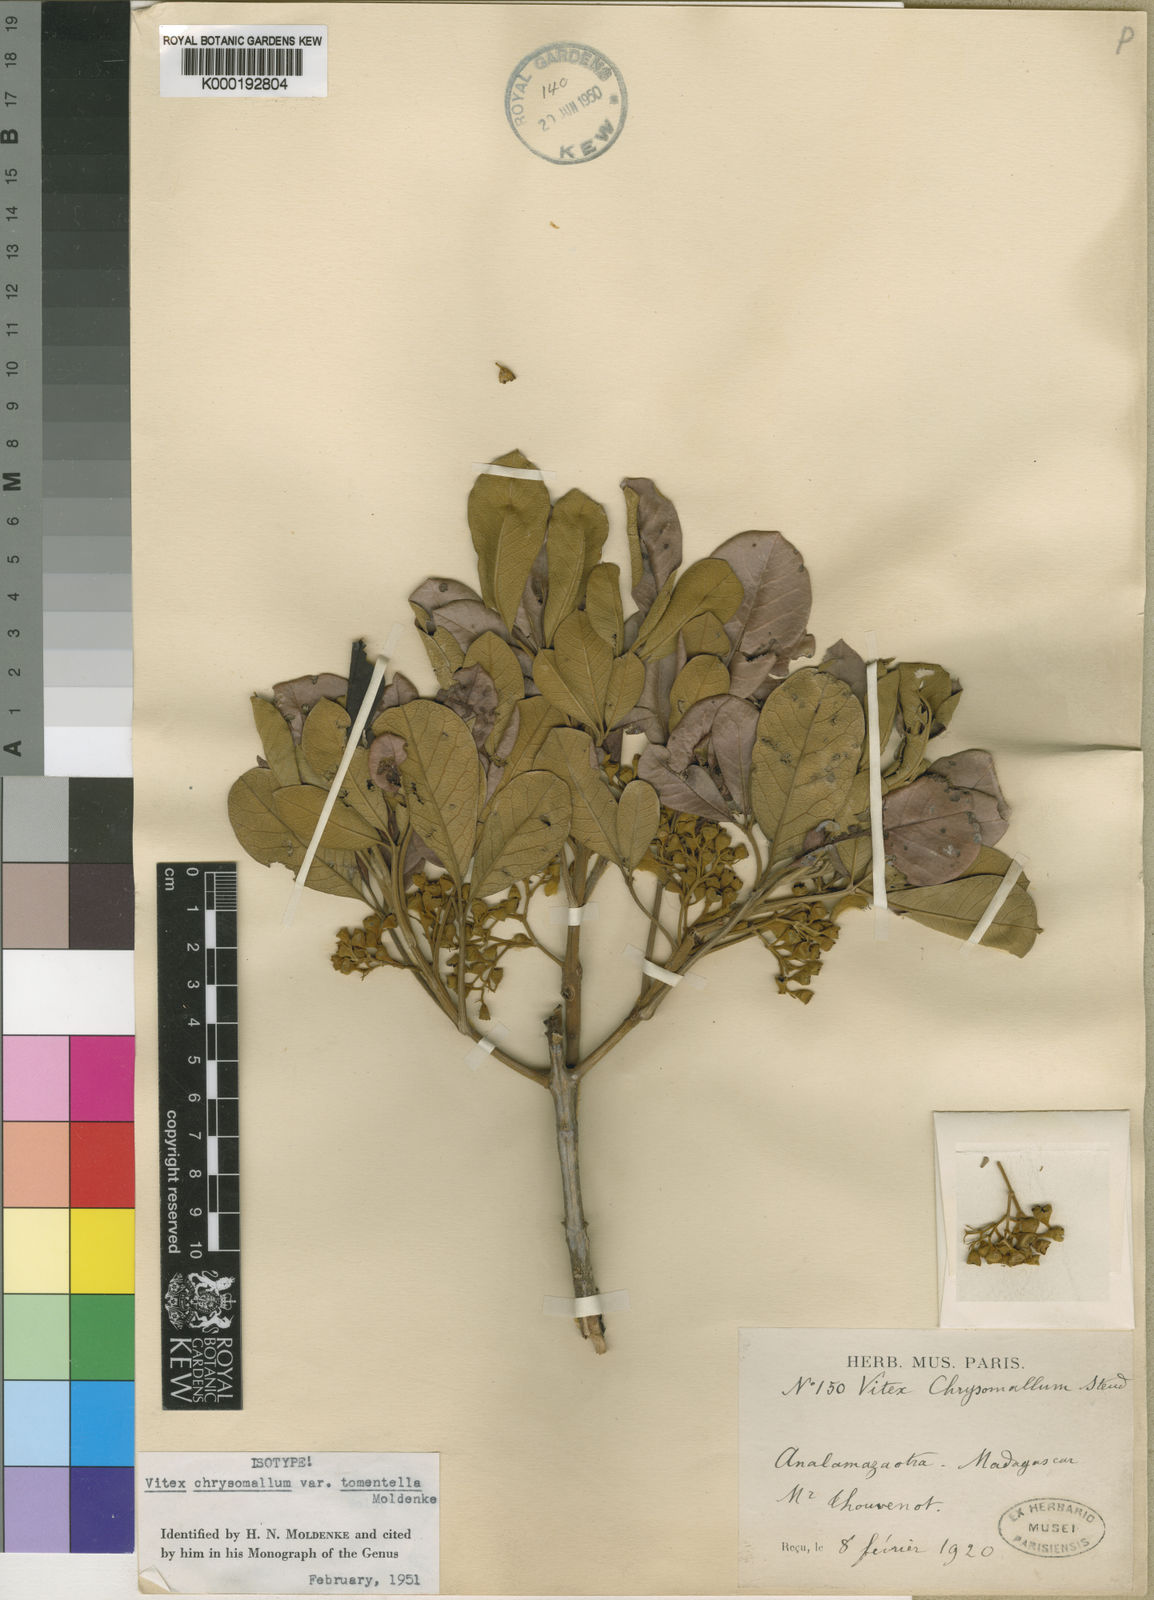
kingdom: Plantae
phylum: Tracheophyta
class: Magnoliopsida
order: Lamiales
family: Lamiaceae
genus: Vitex
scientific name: Vitex chrysomallum
